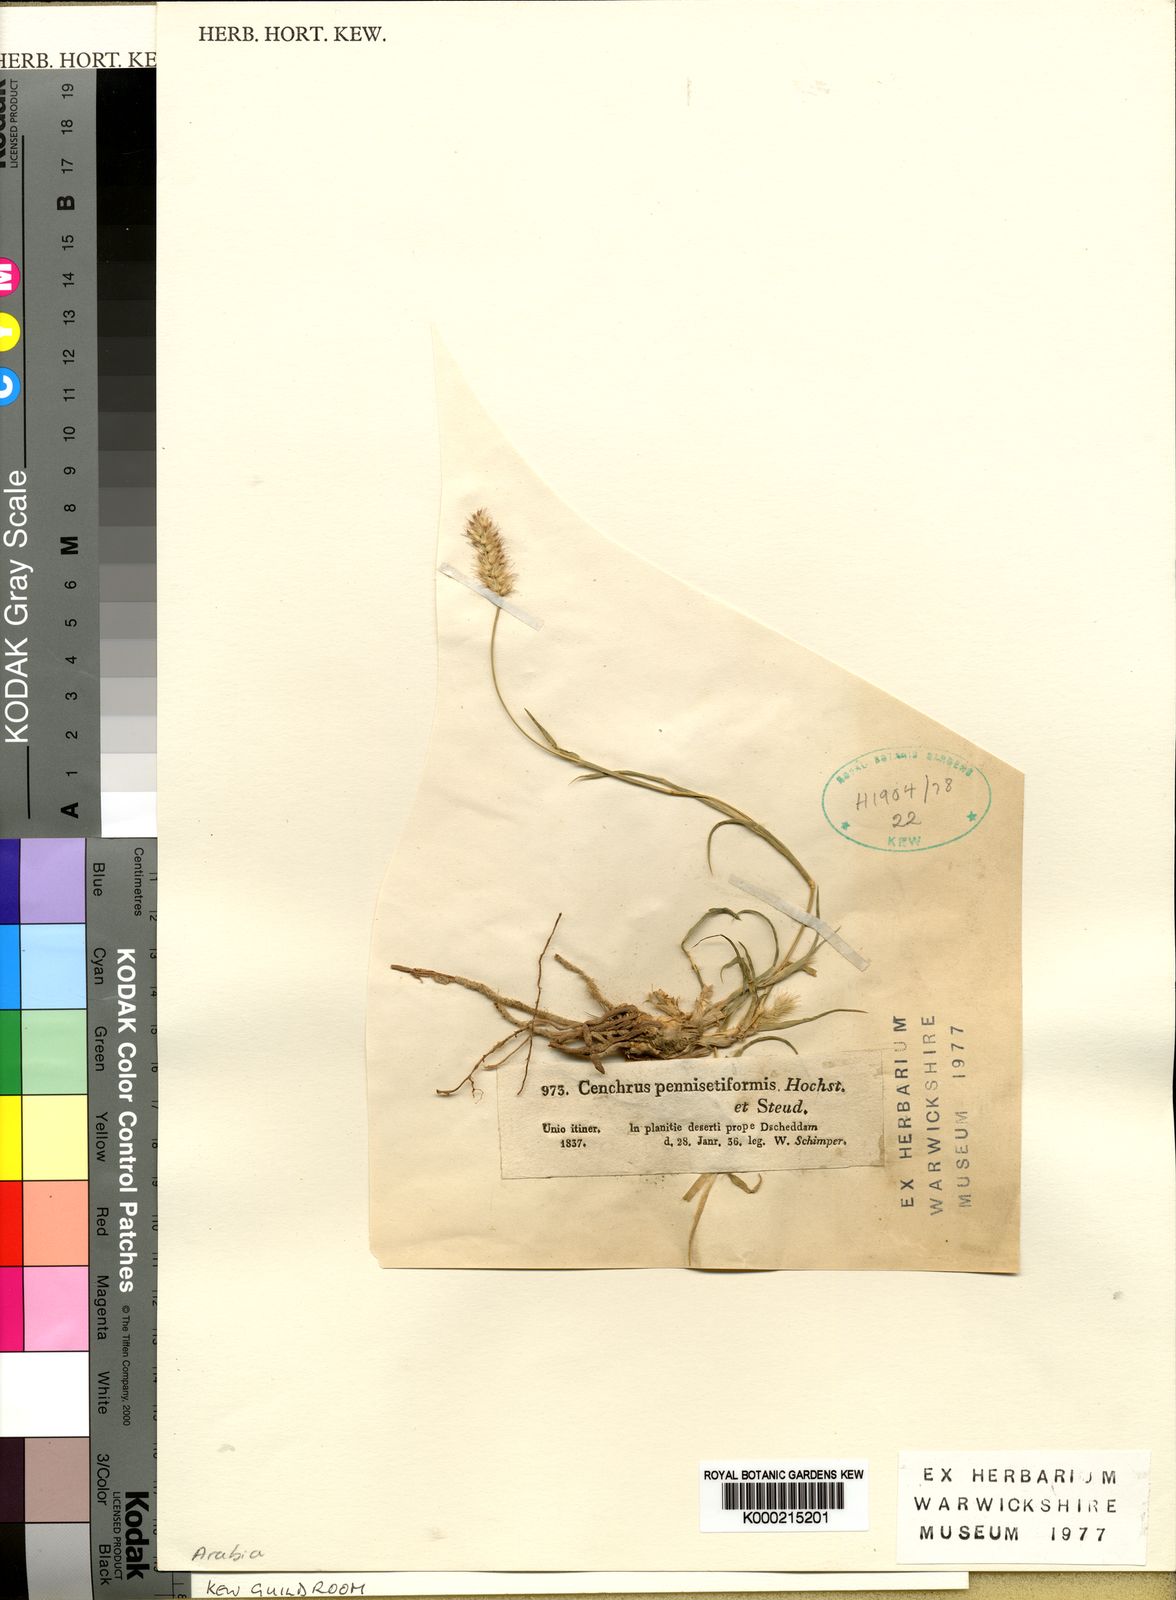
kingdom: Plantae
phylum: Tracheophyta
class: Liliopsida
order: Poales
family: Poaceae
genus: Cenchrus
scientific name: Cenchrus pennisetiformis
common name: Cloncurry
